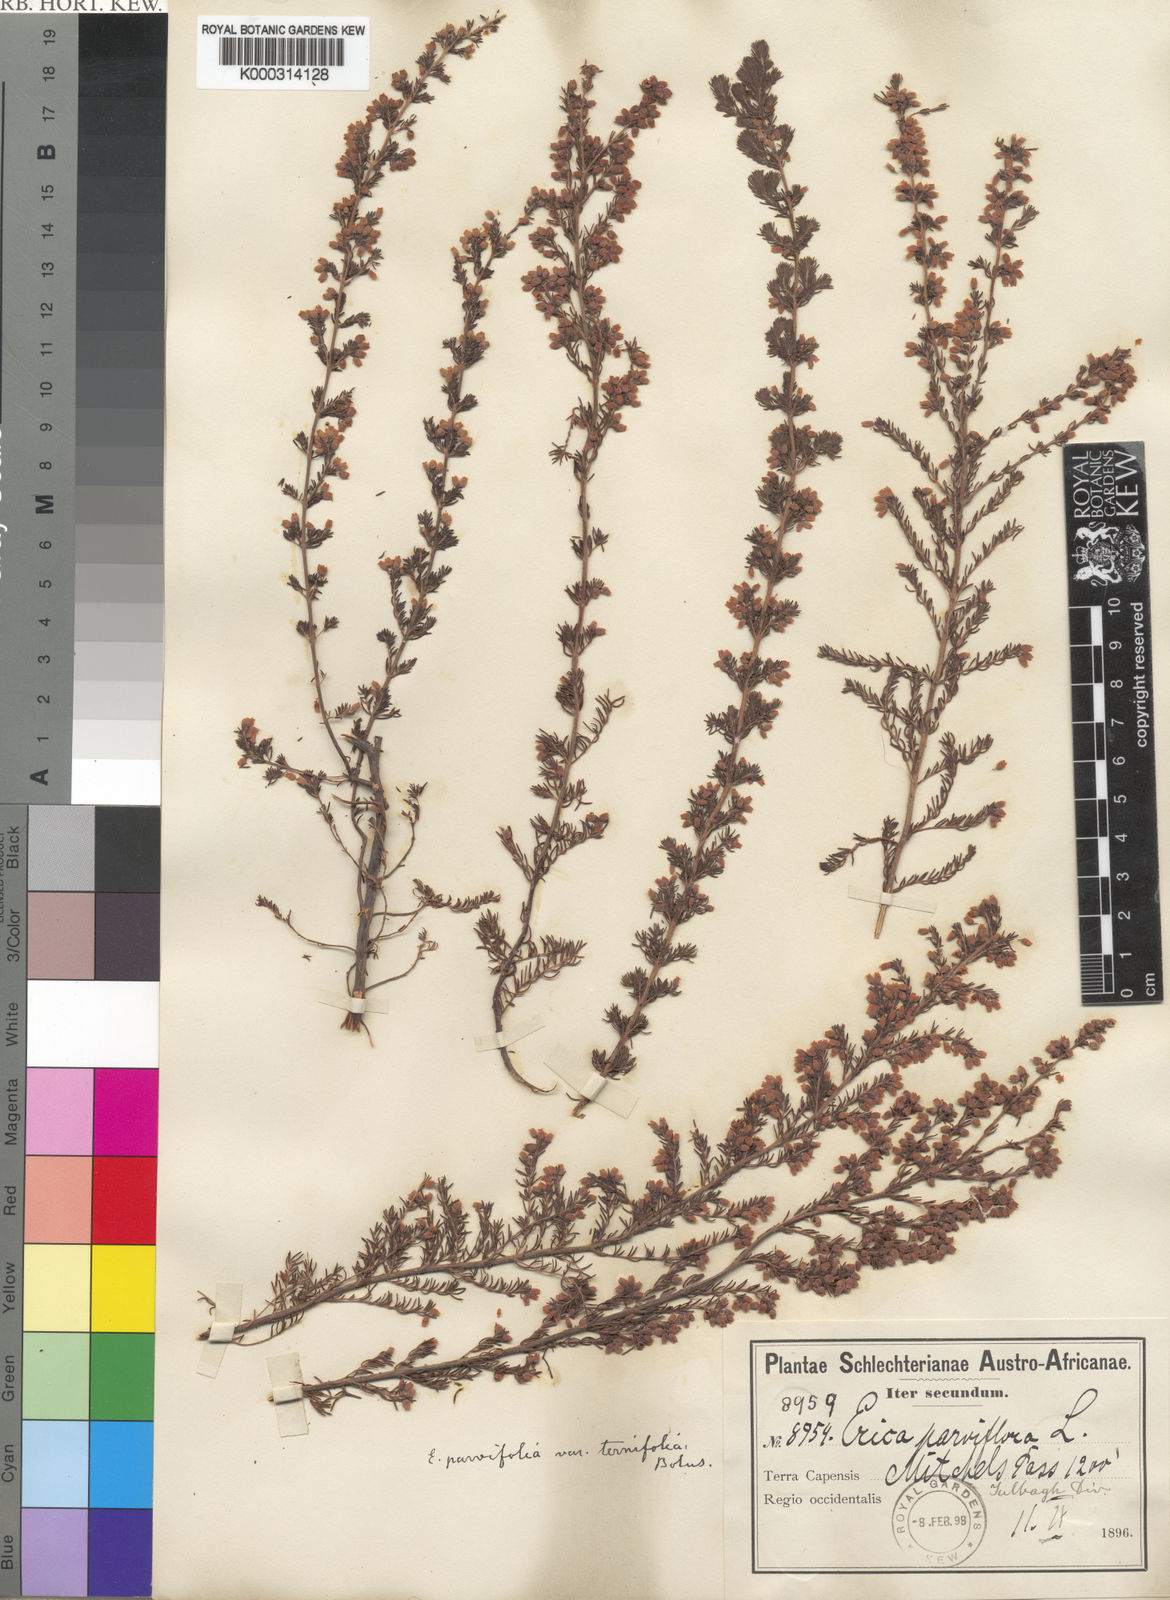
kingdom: Plantae
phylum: Tracheophyta
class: Magnoliopsida
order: Ericales
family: Ericaceae
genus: Erica
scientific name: Erica parviflora
